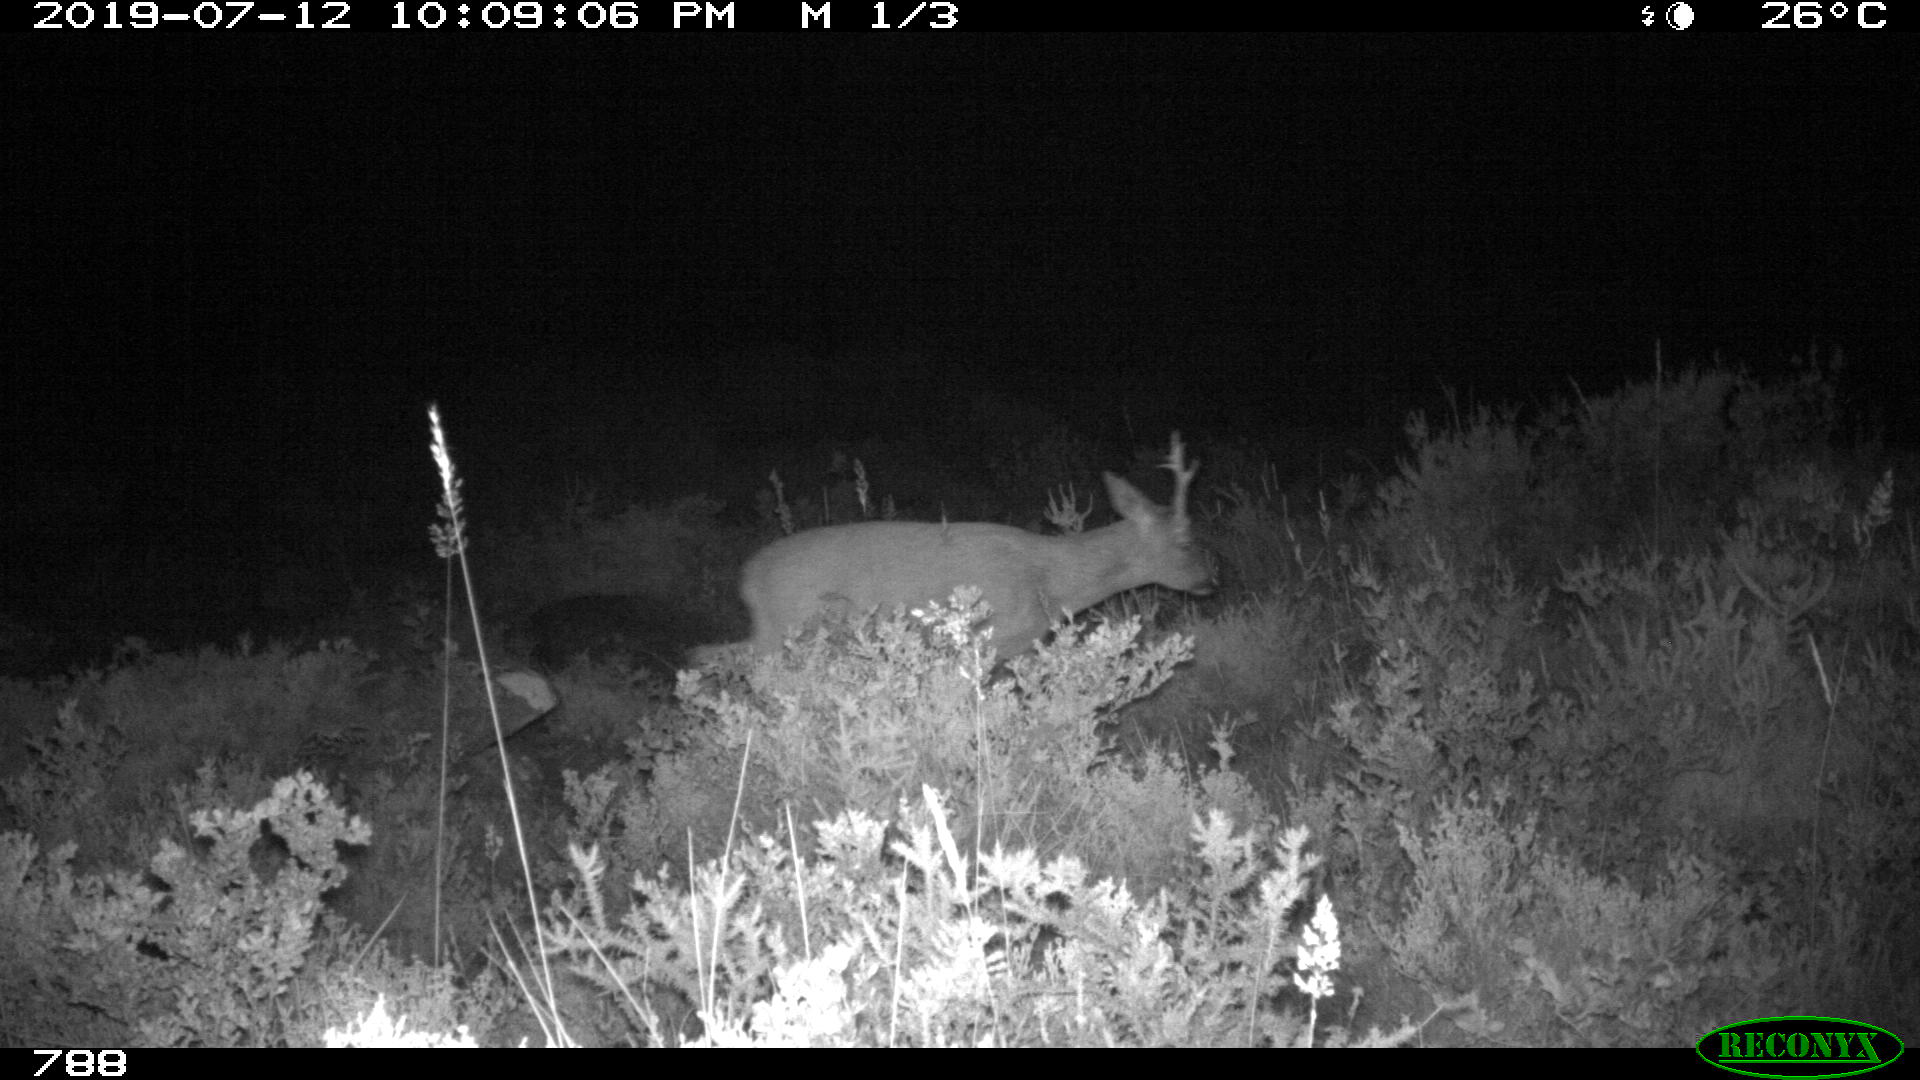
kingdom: Animalia
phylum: Chordata
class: Mammalia
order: Artiodactyla
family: Cervidae
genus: Capreolus
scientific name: Capreolus capreolus
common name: Western roe deer
